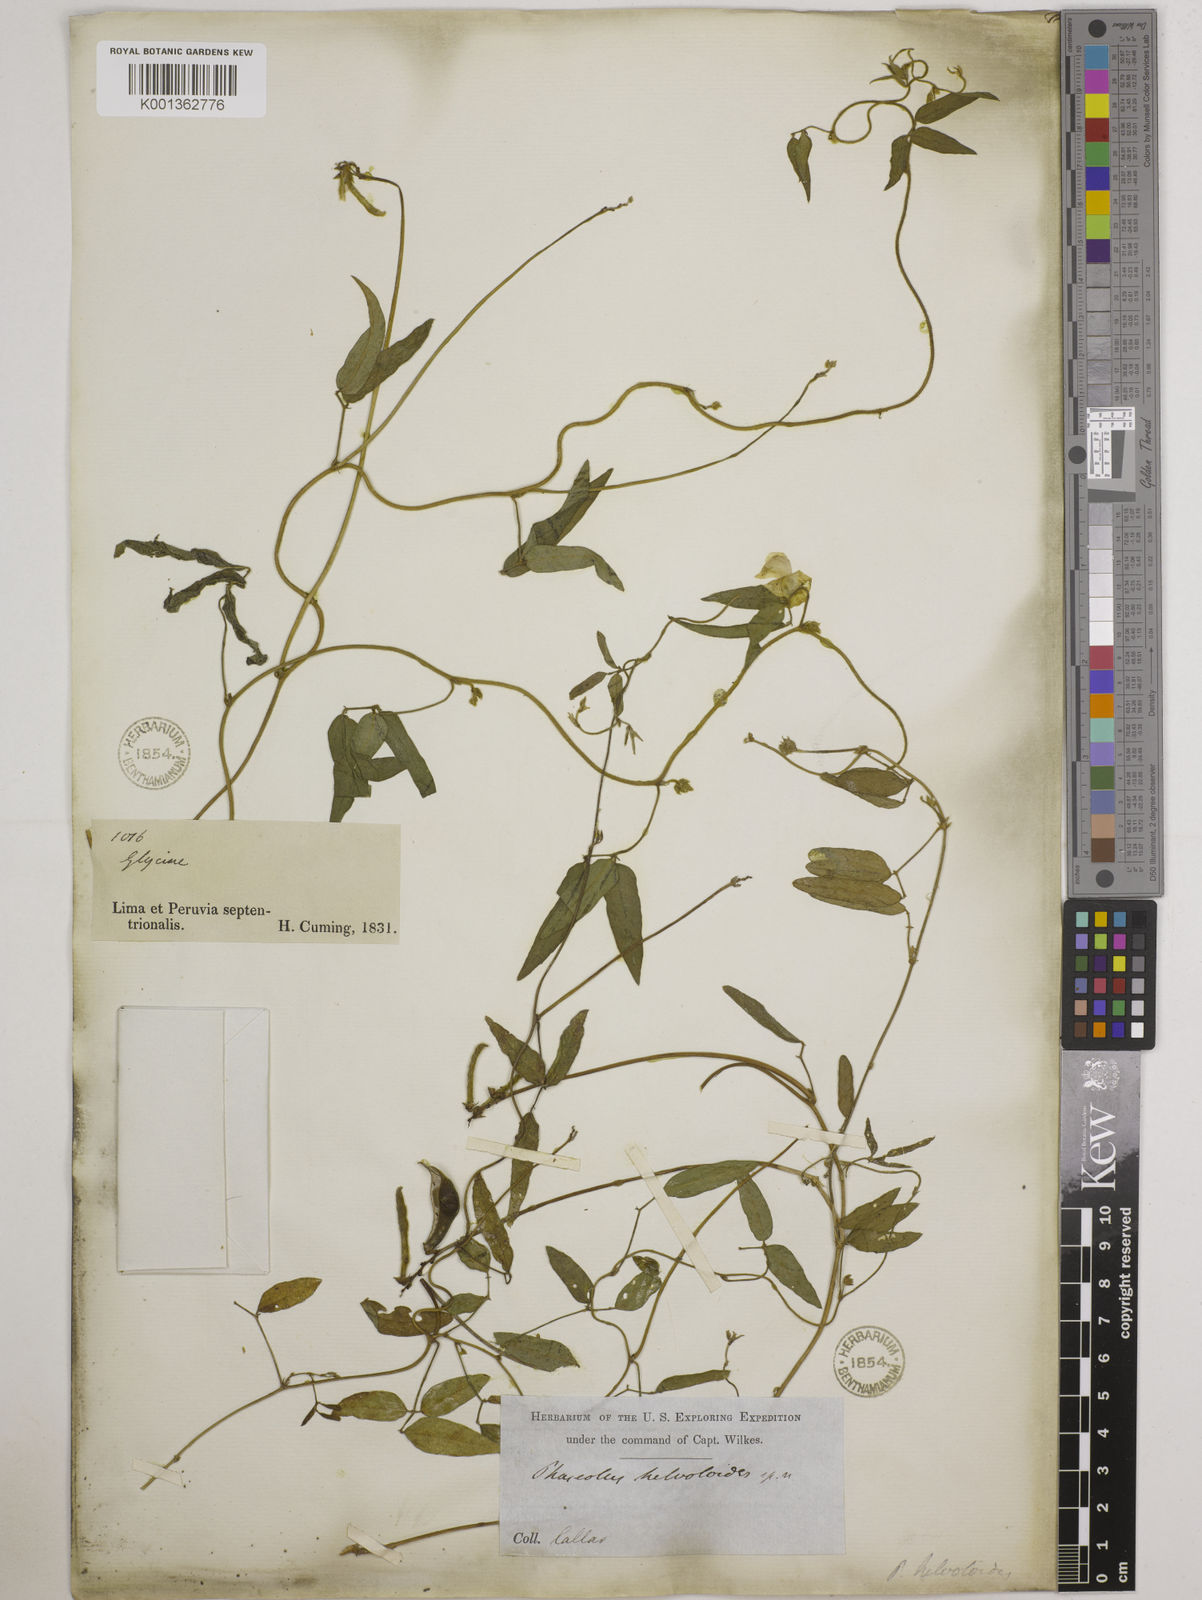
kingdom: Plantae
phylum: Tracheophyta
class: Magnoliopsida
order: Fabales
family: Fabaceae
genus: Vigna
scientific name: Vigna luteola
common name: Hairypod cowpea
